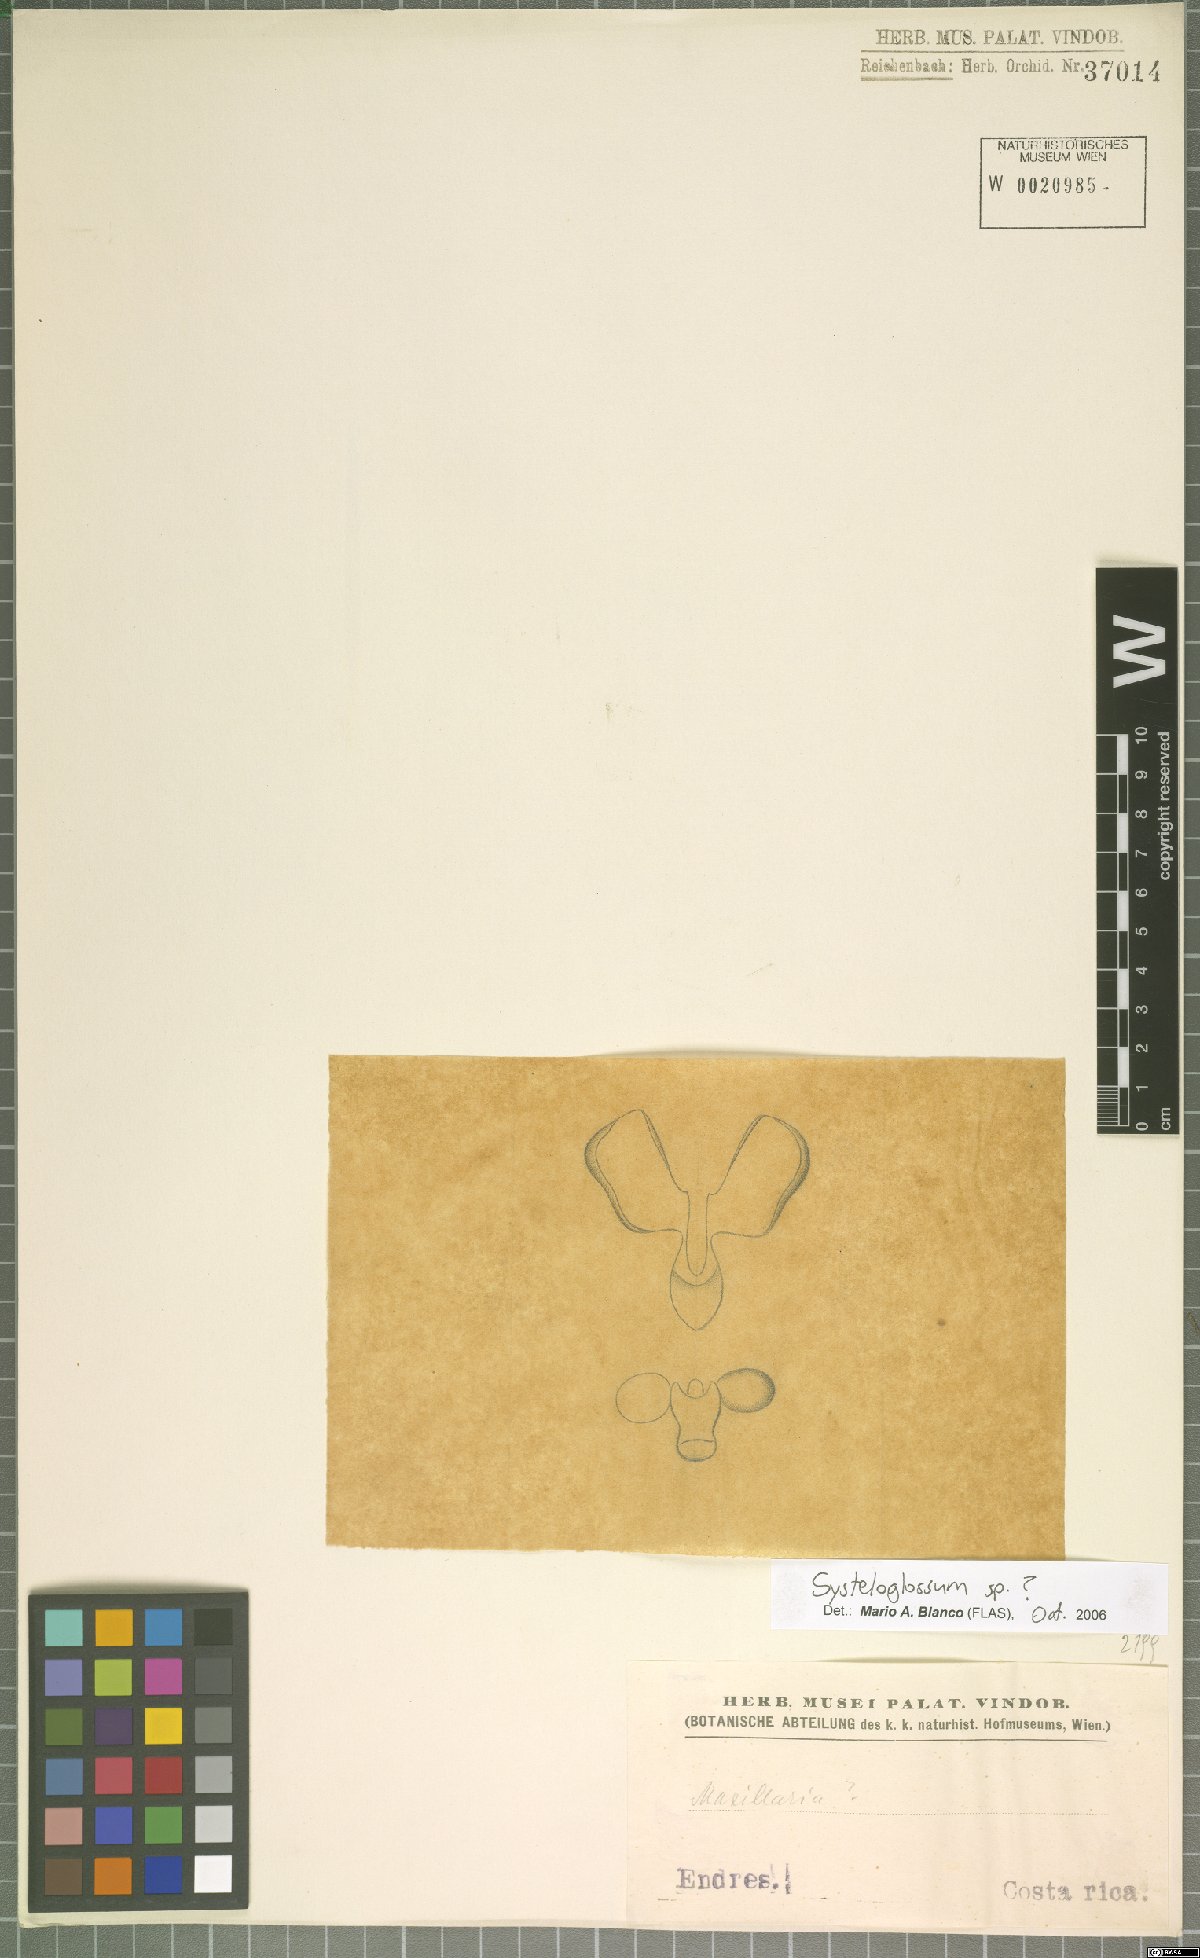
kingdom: Plantae
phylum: Tracheophyta
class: Liliopsida
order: Asparagales
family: Orchidaceae
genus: Systeloglossum
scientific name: Systeloglossum
